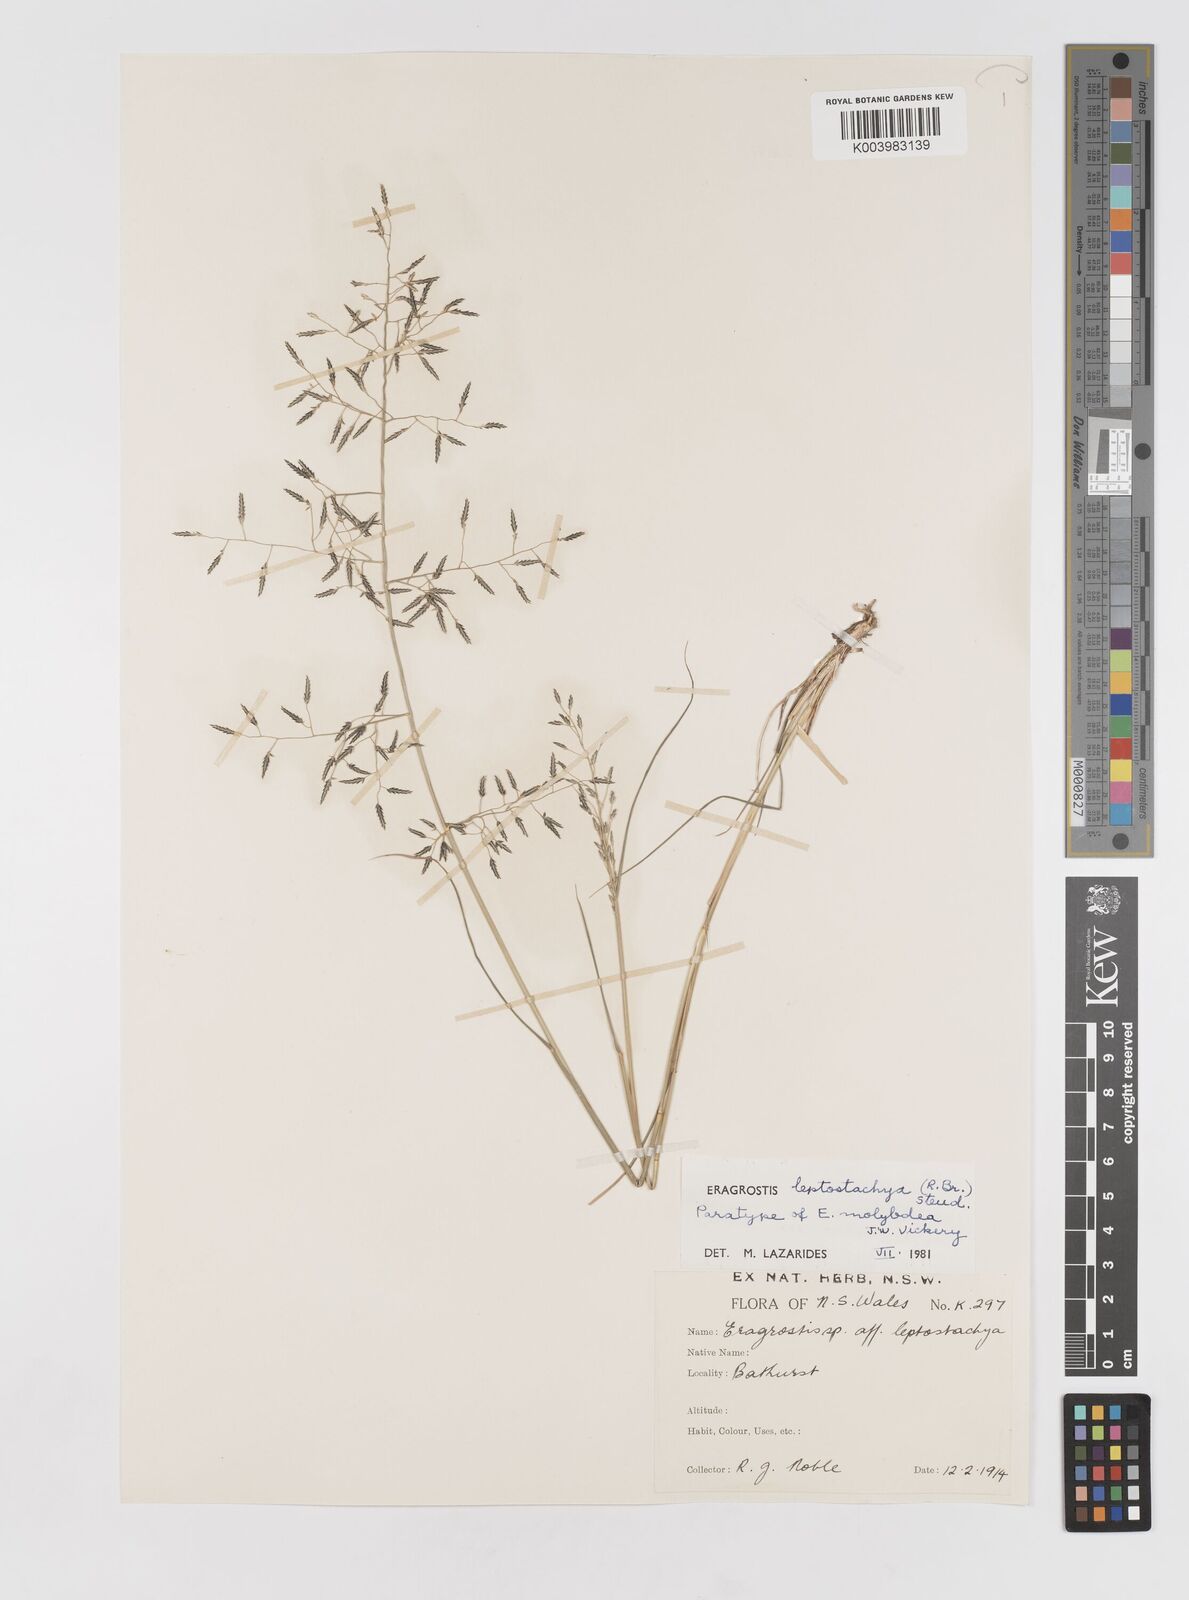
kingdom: Plantae
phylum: Tracheophyta
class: Liliopsida
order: Poales
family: Poaceae
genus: Eragrostis
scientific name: Eragrostis leptostachya
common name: Australian lovegrass
